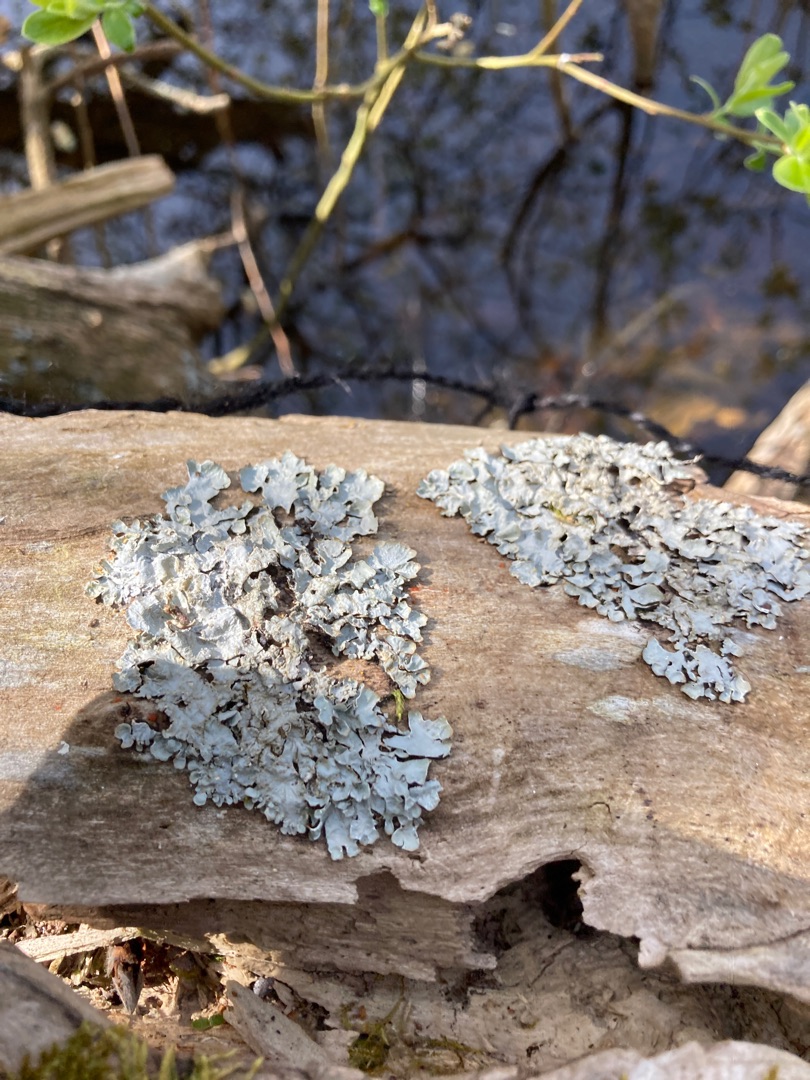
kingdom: Fungi
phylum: Ascomycota
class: Lecanoromycetes
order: Lecanorales
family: Parmeliaceae
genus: Parmelia
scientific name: Parmelia sulcata
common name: Rynket skållav
